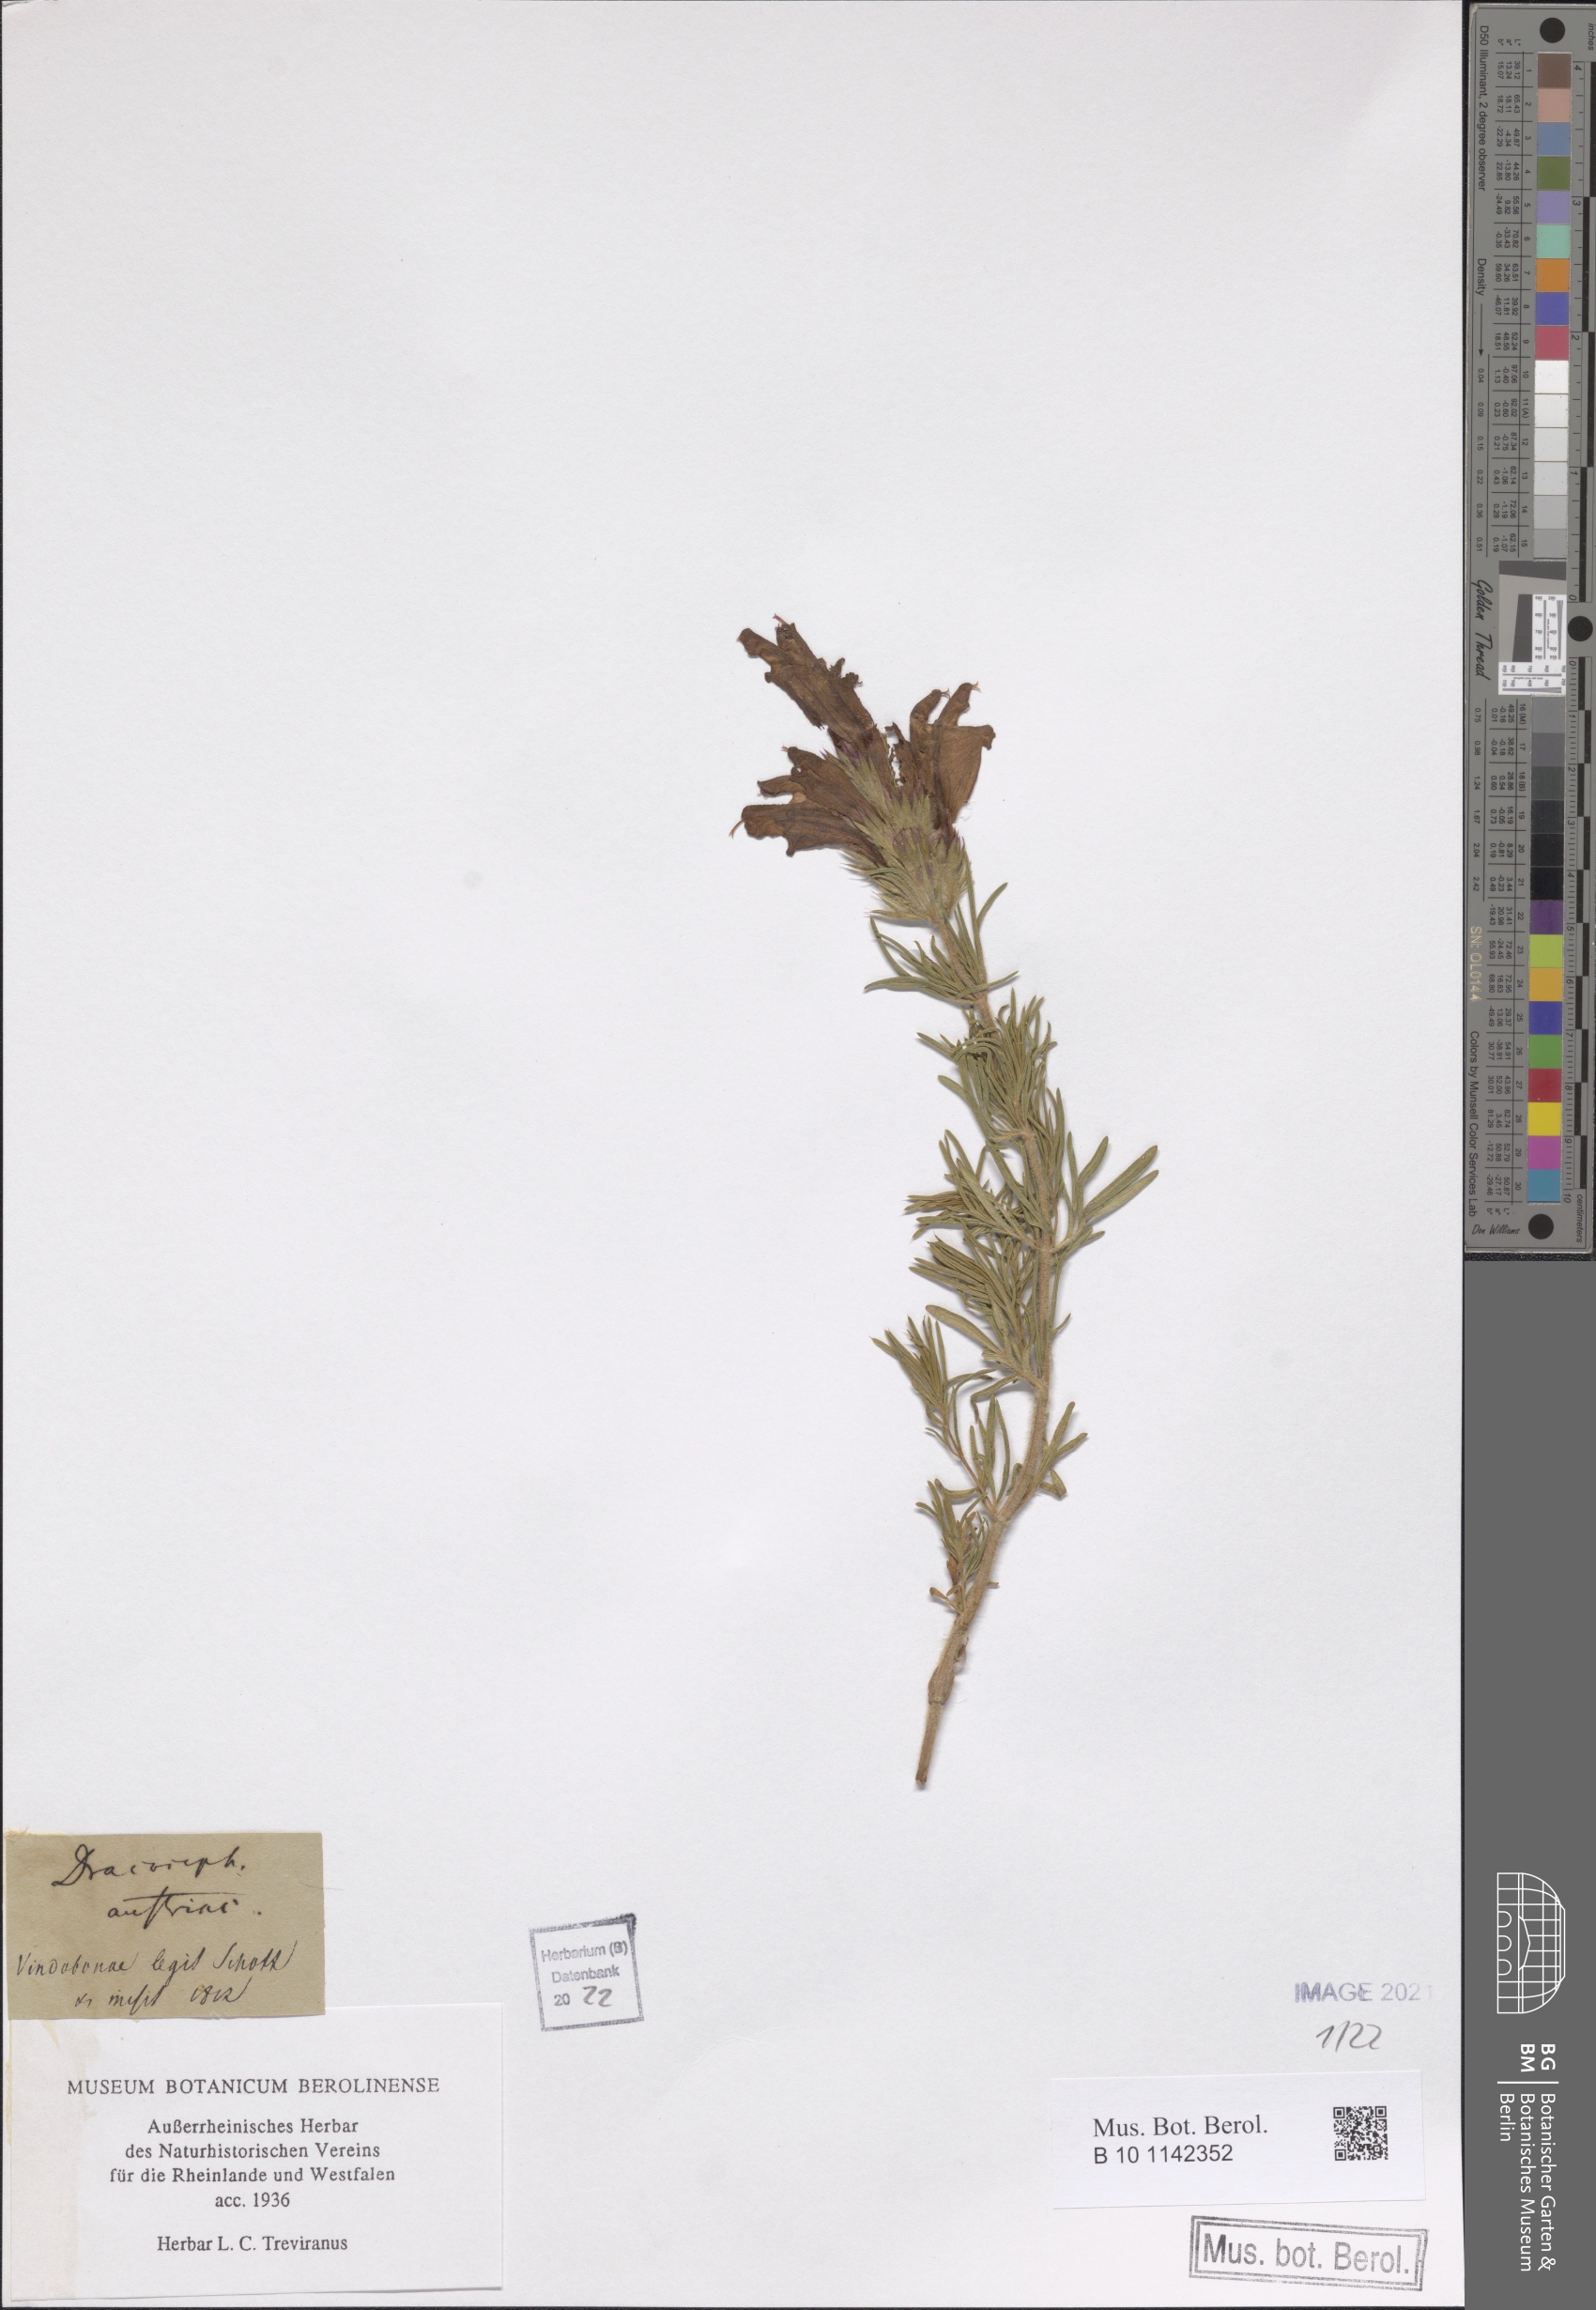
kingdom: Plantae
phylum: Tracheophyta
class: Magnoliopsida
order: Lamiales
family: Lamiaceae
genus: Dracocephalum
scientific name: Dracocephalum austriacum
